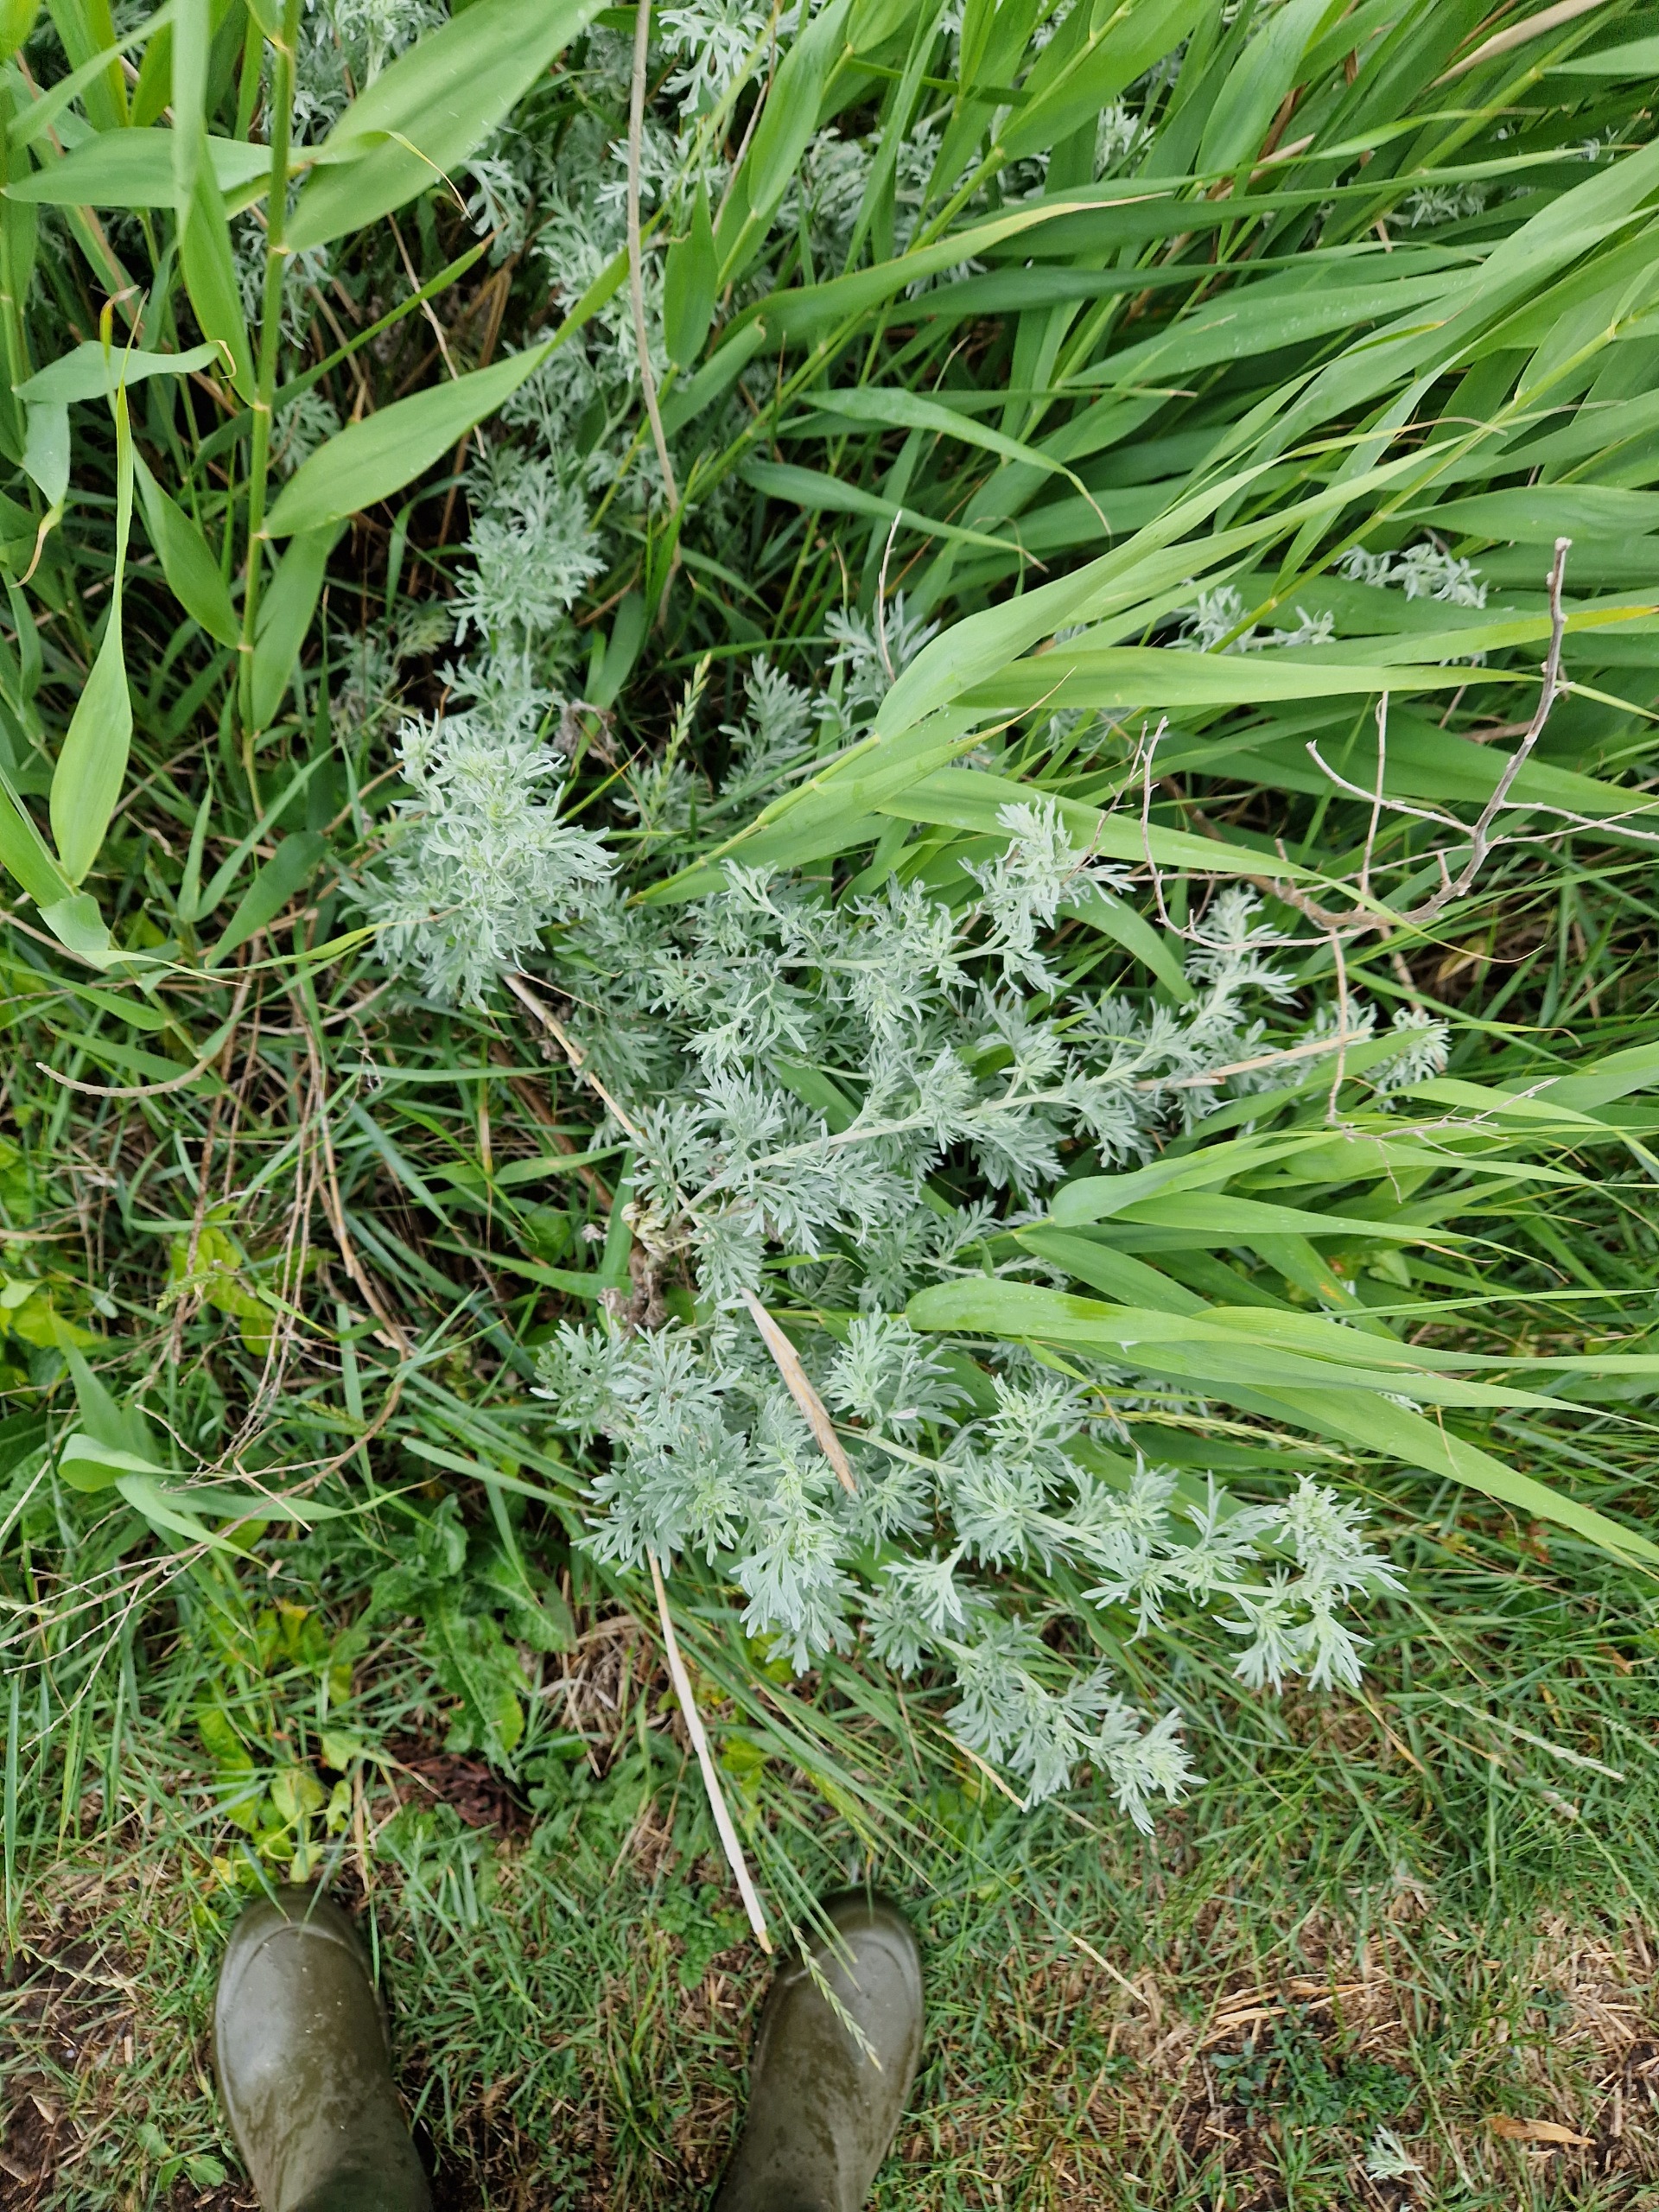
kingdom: Plantae
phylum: Tracheophyta
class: Magnoliopsida
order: Asterales
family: Asteraceae
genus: Artemisia
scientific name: Artemisia absinthium
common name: Havemalurt
